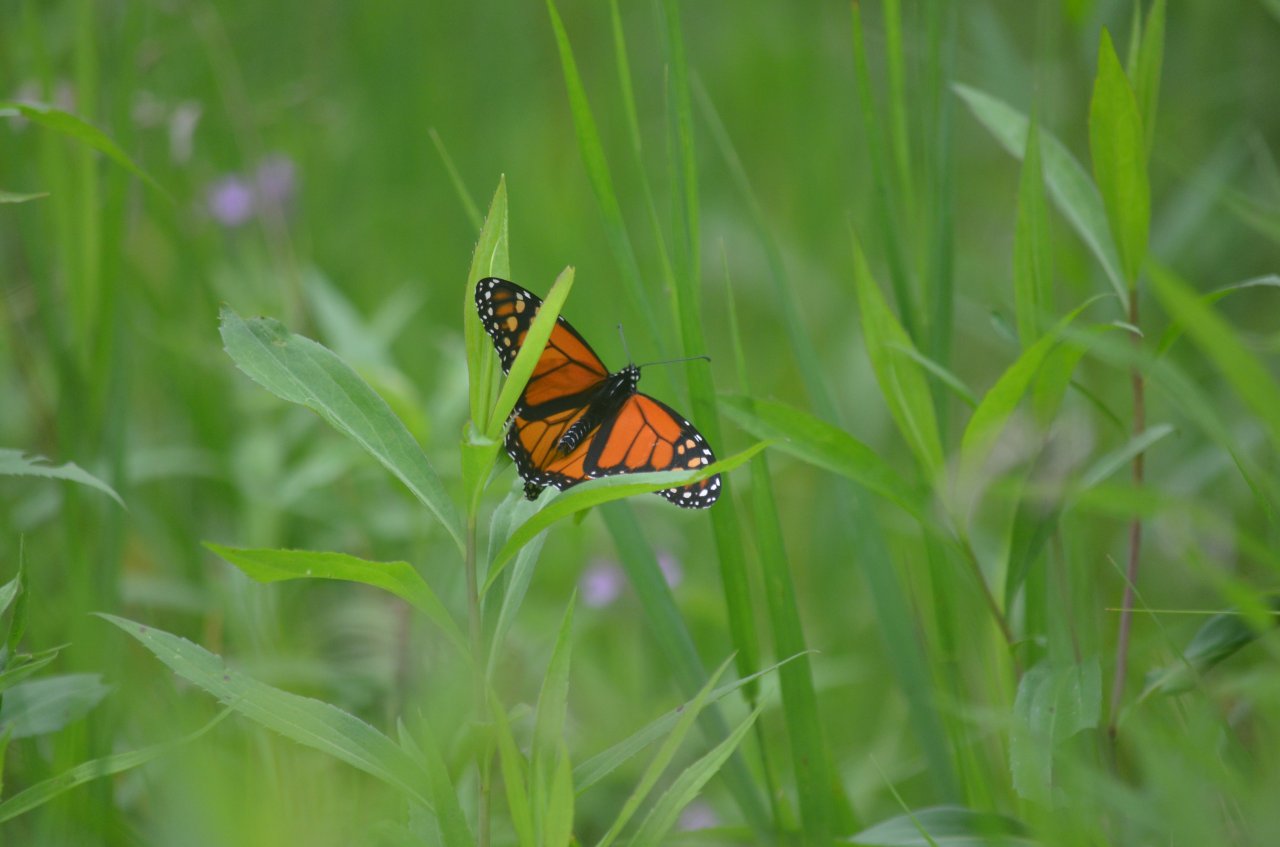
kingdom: Animalia
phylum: Arthropoda
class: Insecta
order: Lepidoptera
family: Nymphalidae
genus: Danaus
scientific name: Danaus plexippus
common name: Monarch
